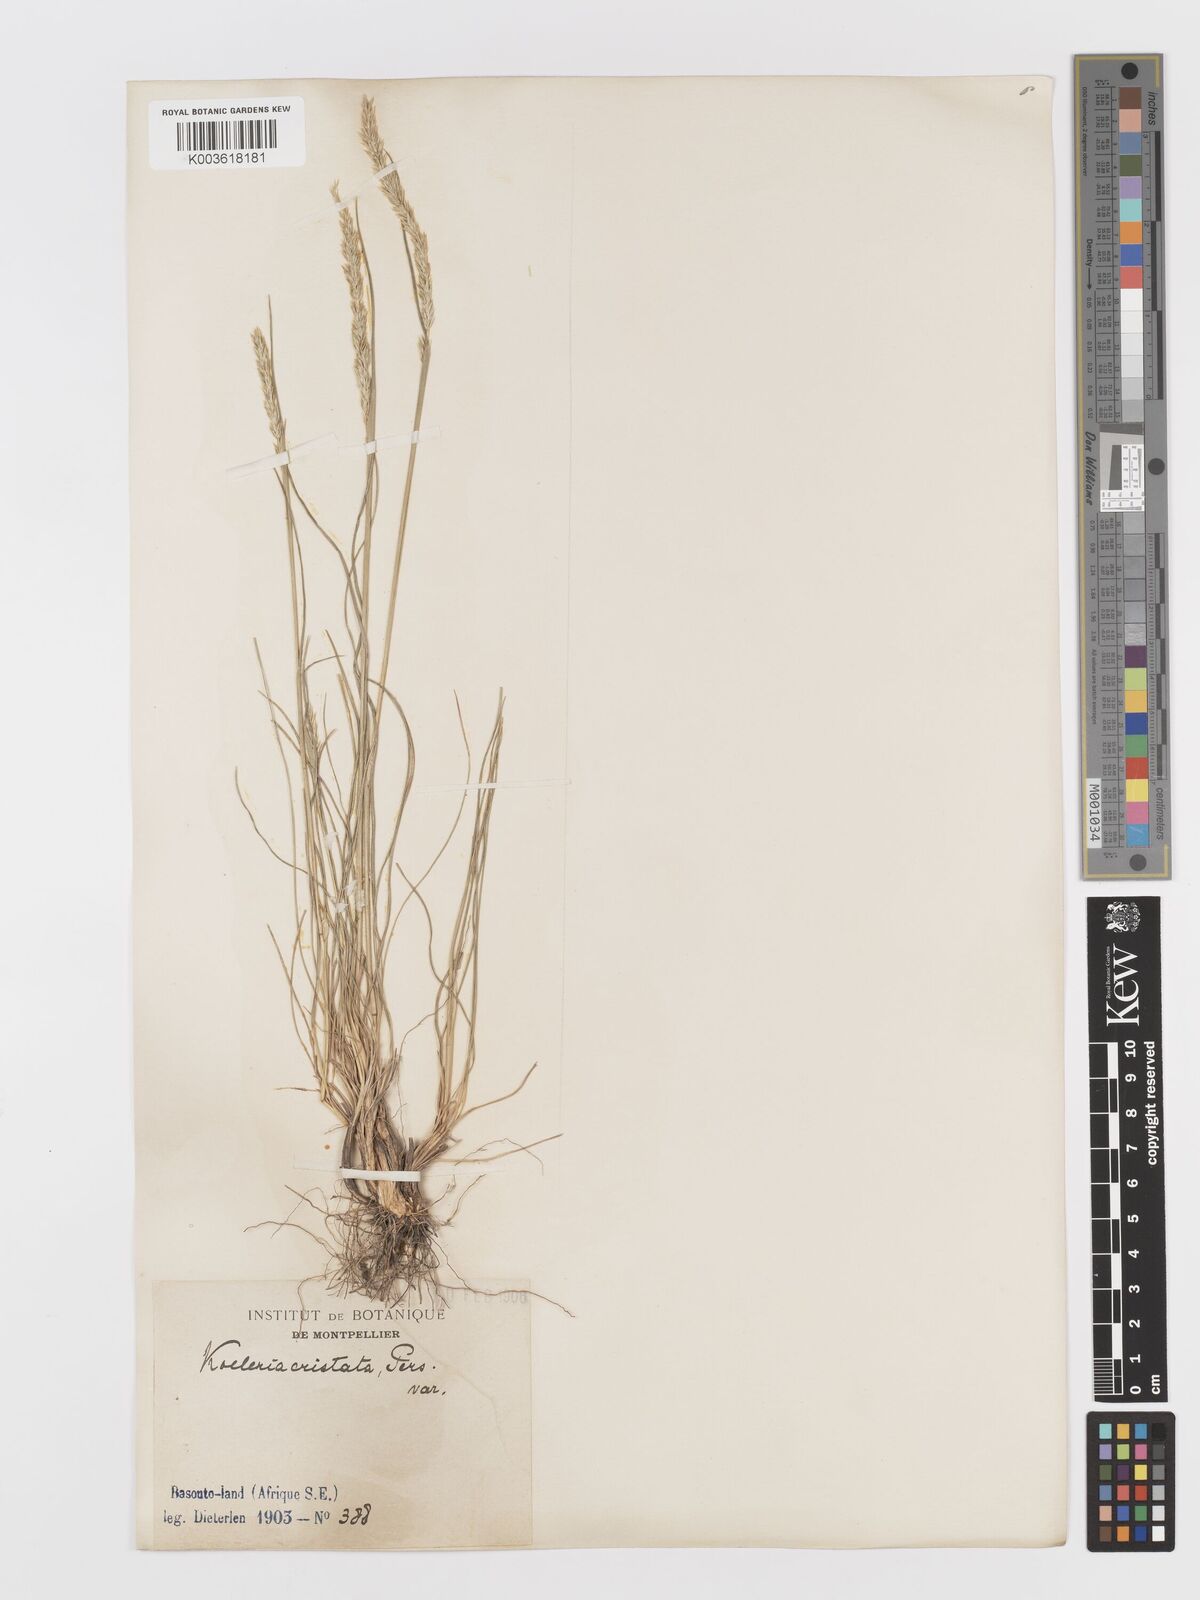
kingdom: Plantae
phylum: Tracheophyta
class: Liliopsida
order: Poales
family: Poaceae
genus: Koeleria
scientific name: Koeleria capensis
